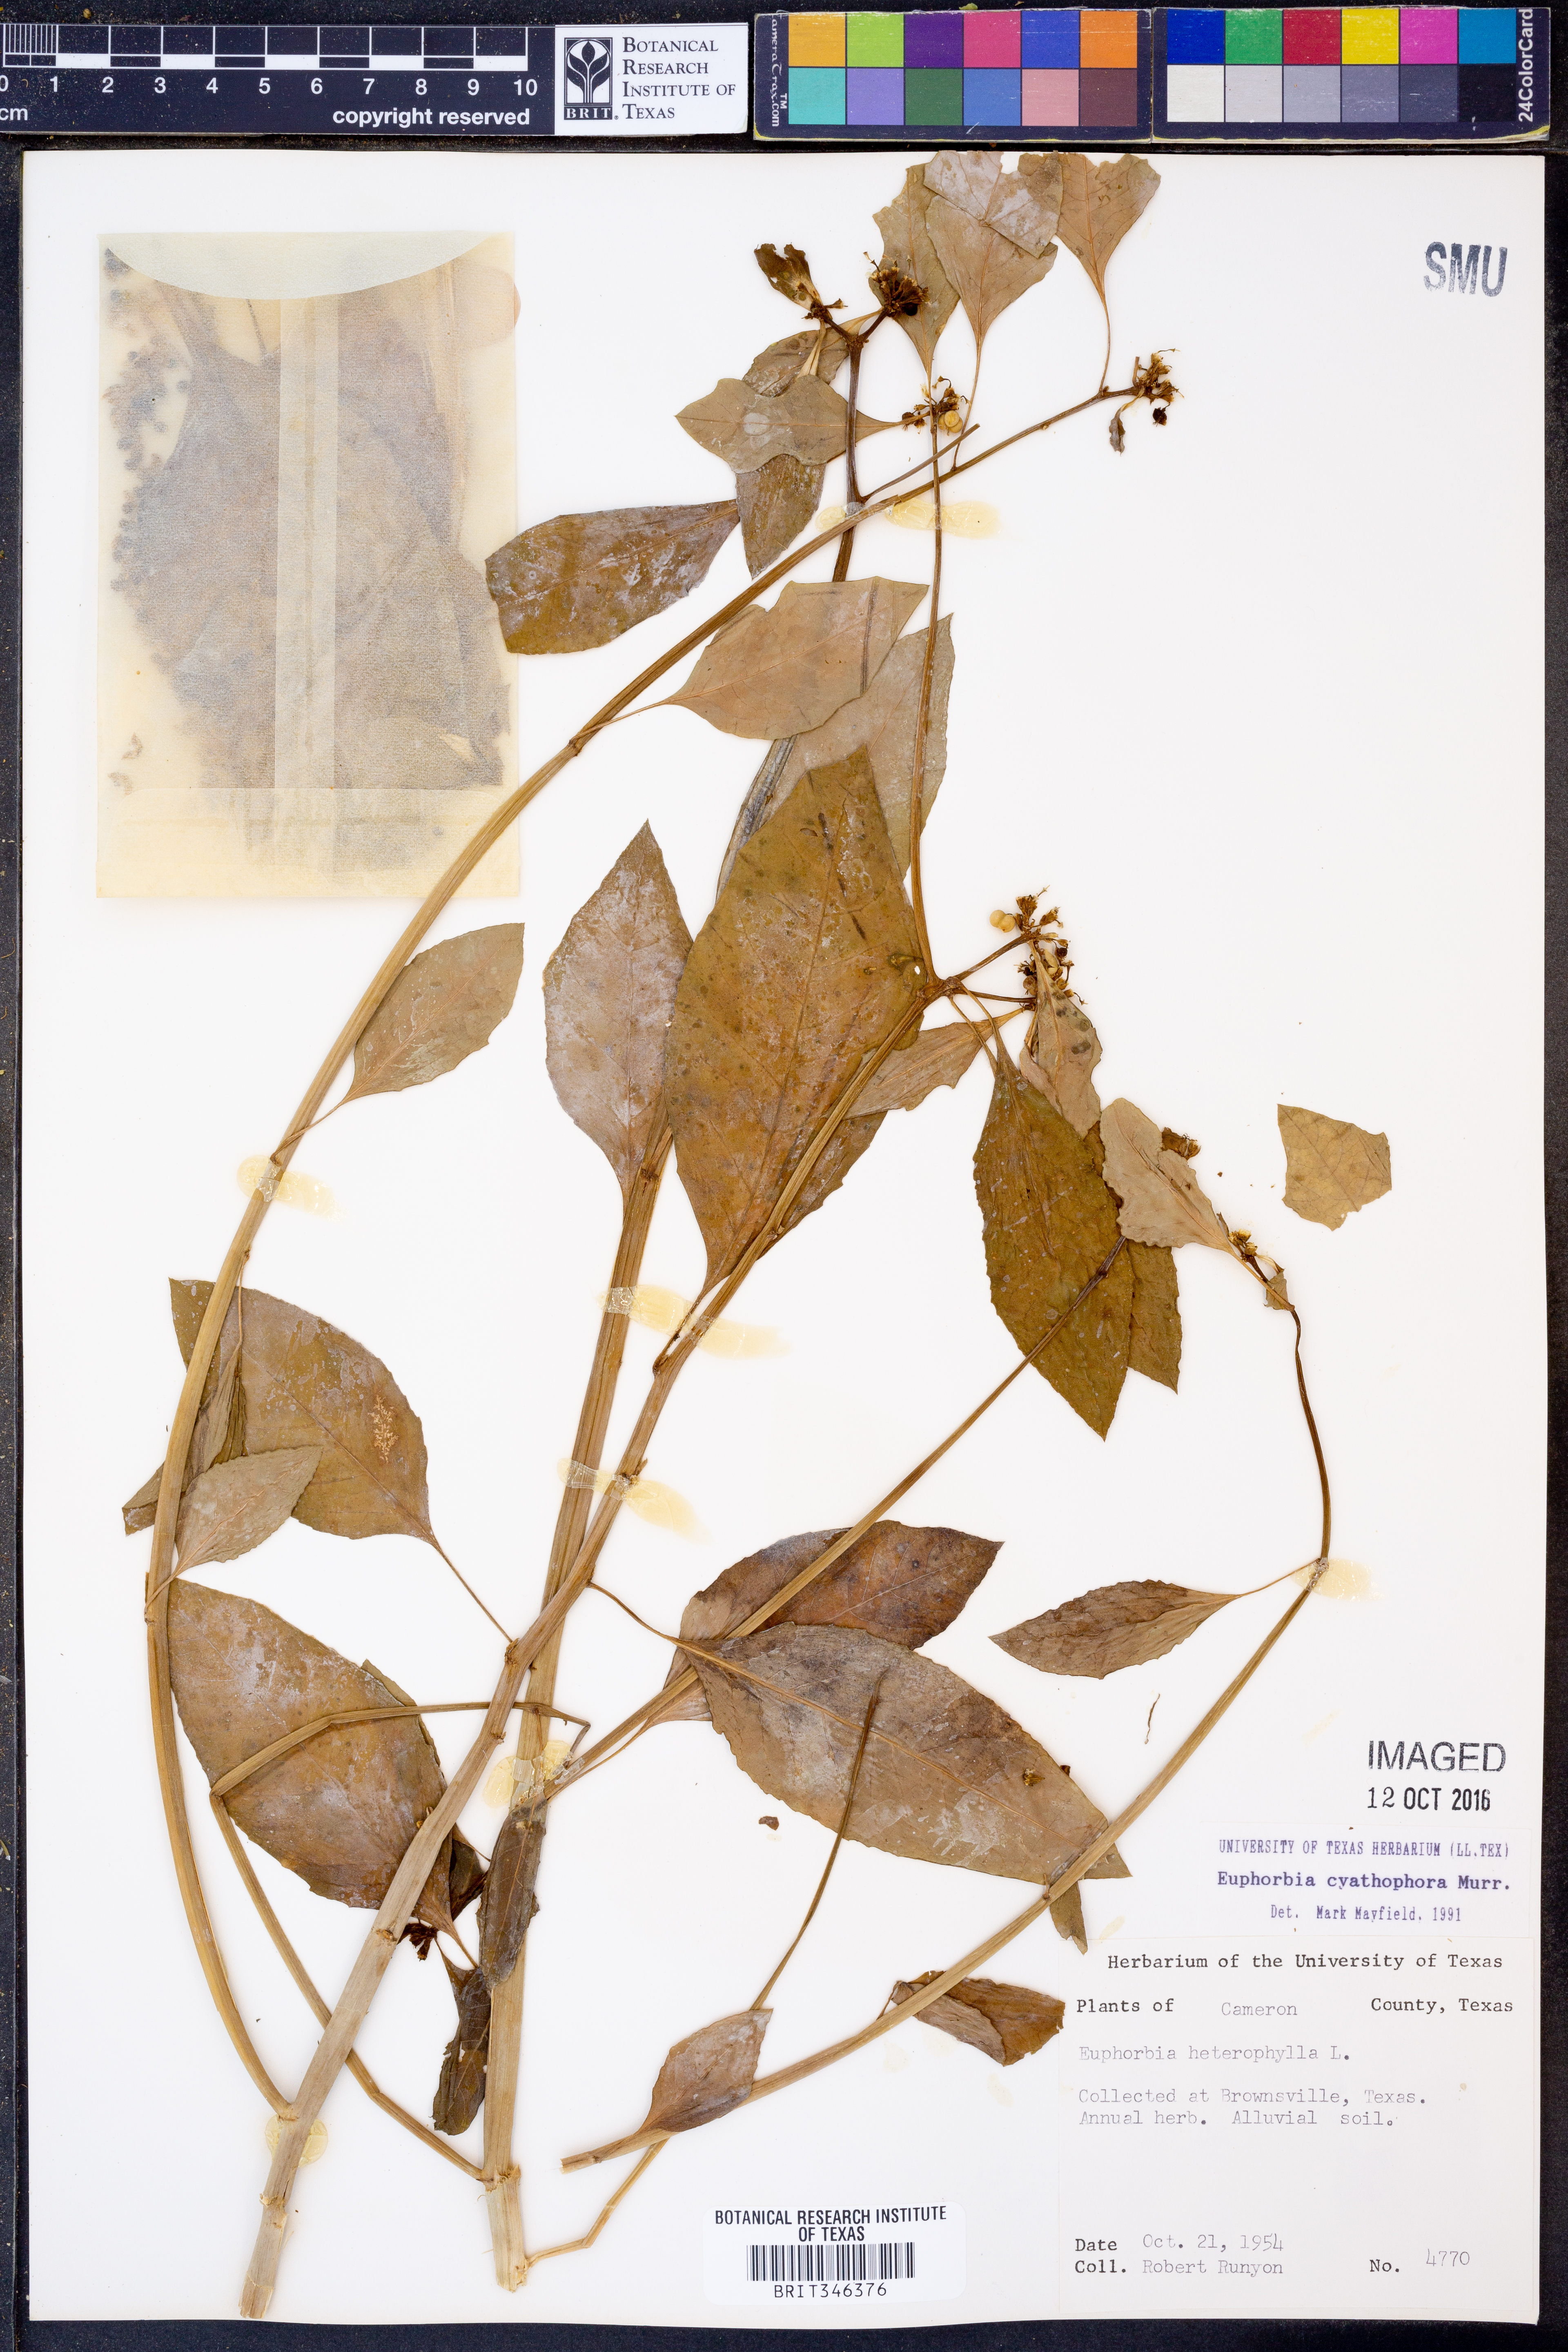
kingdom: Plantae
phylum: Tracheophyta
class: Magnoliopsida
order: Malpighiales
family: Euphorbiaceae
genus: Euphorbia
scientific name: Euphorbia heterophylla
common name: Mexican fireplant
